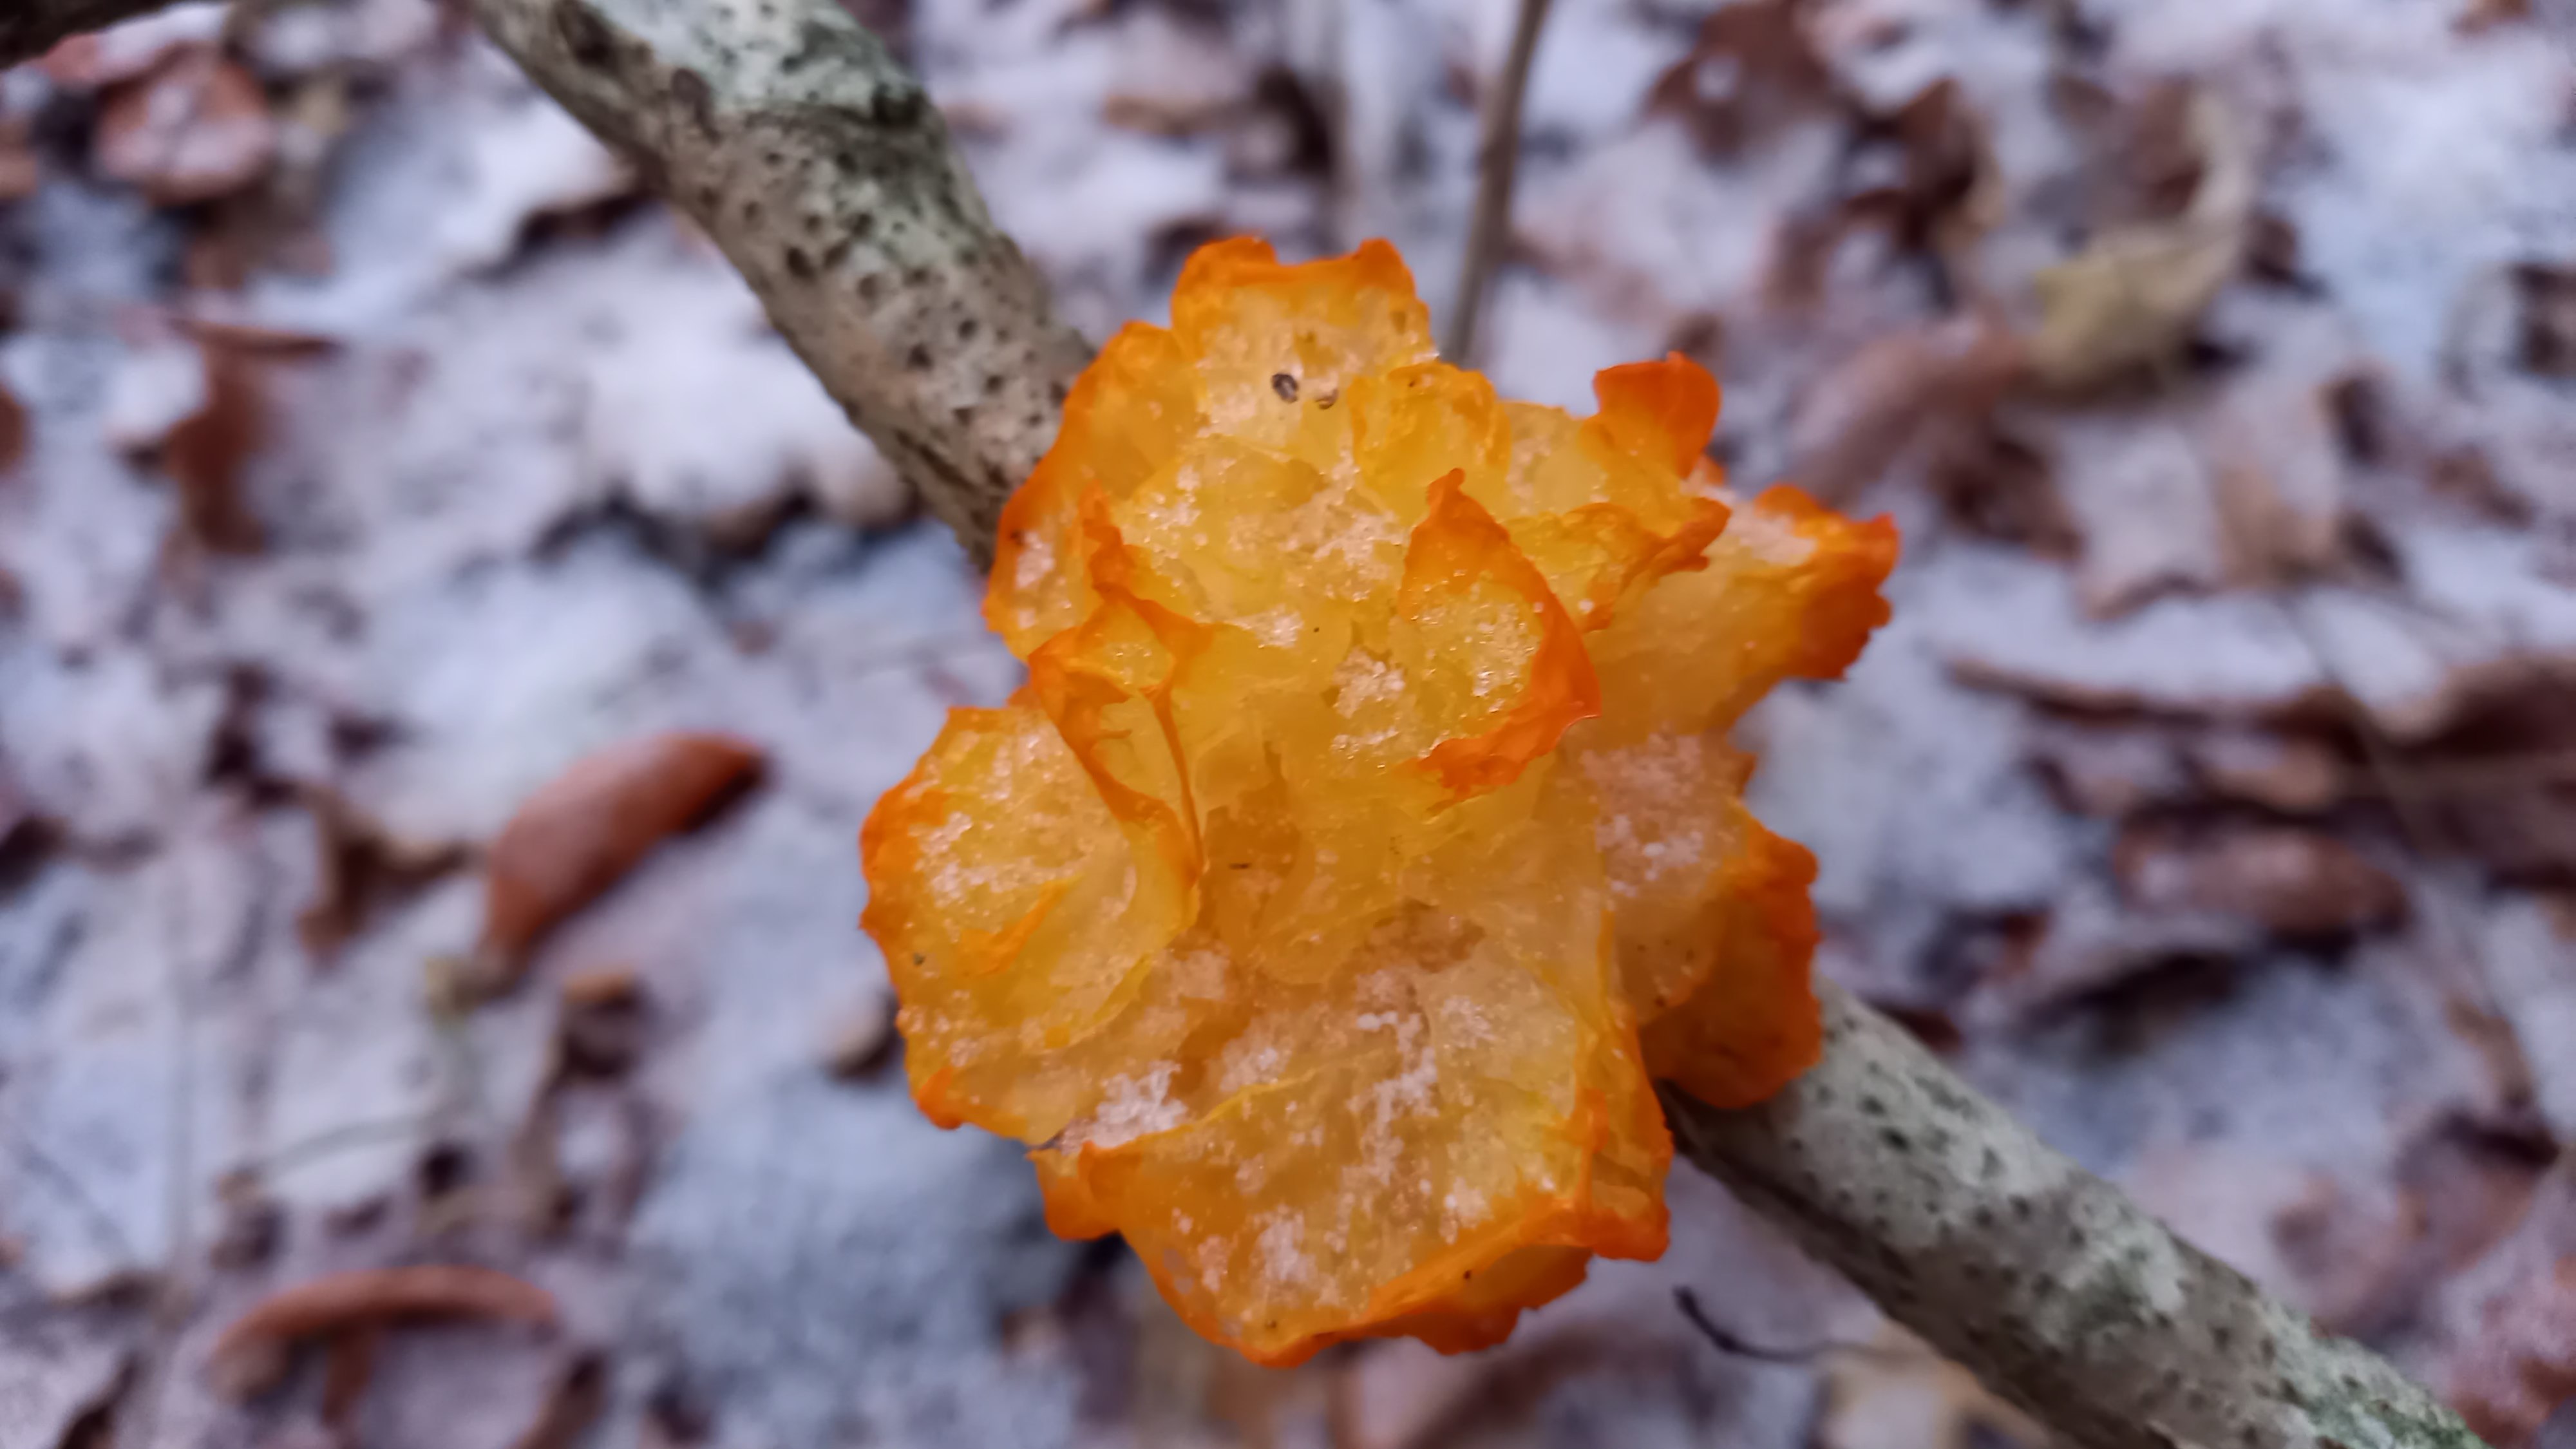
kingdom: Fungi
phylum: Basidiomycota
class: Tremellomycetes
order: Tremellales
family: Tremellaceae
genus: Tremella
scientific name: Tremella mesenterica
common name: gul bævresvamp
